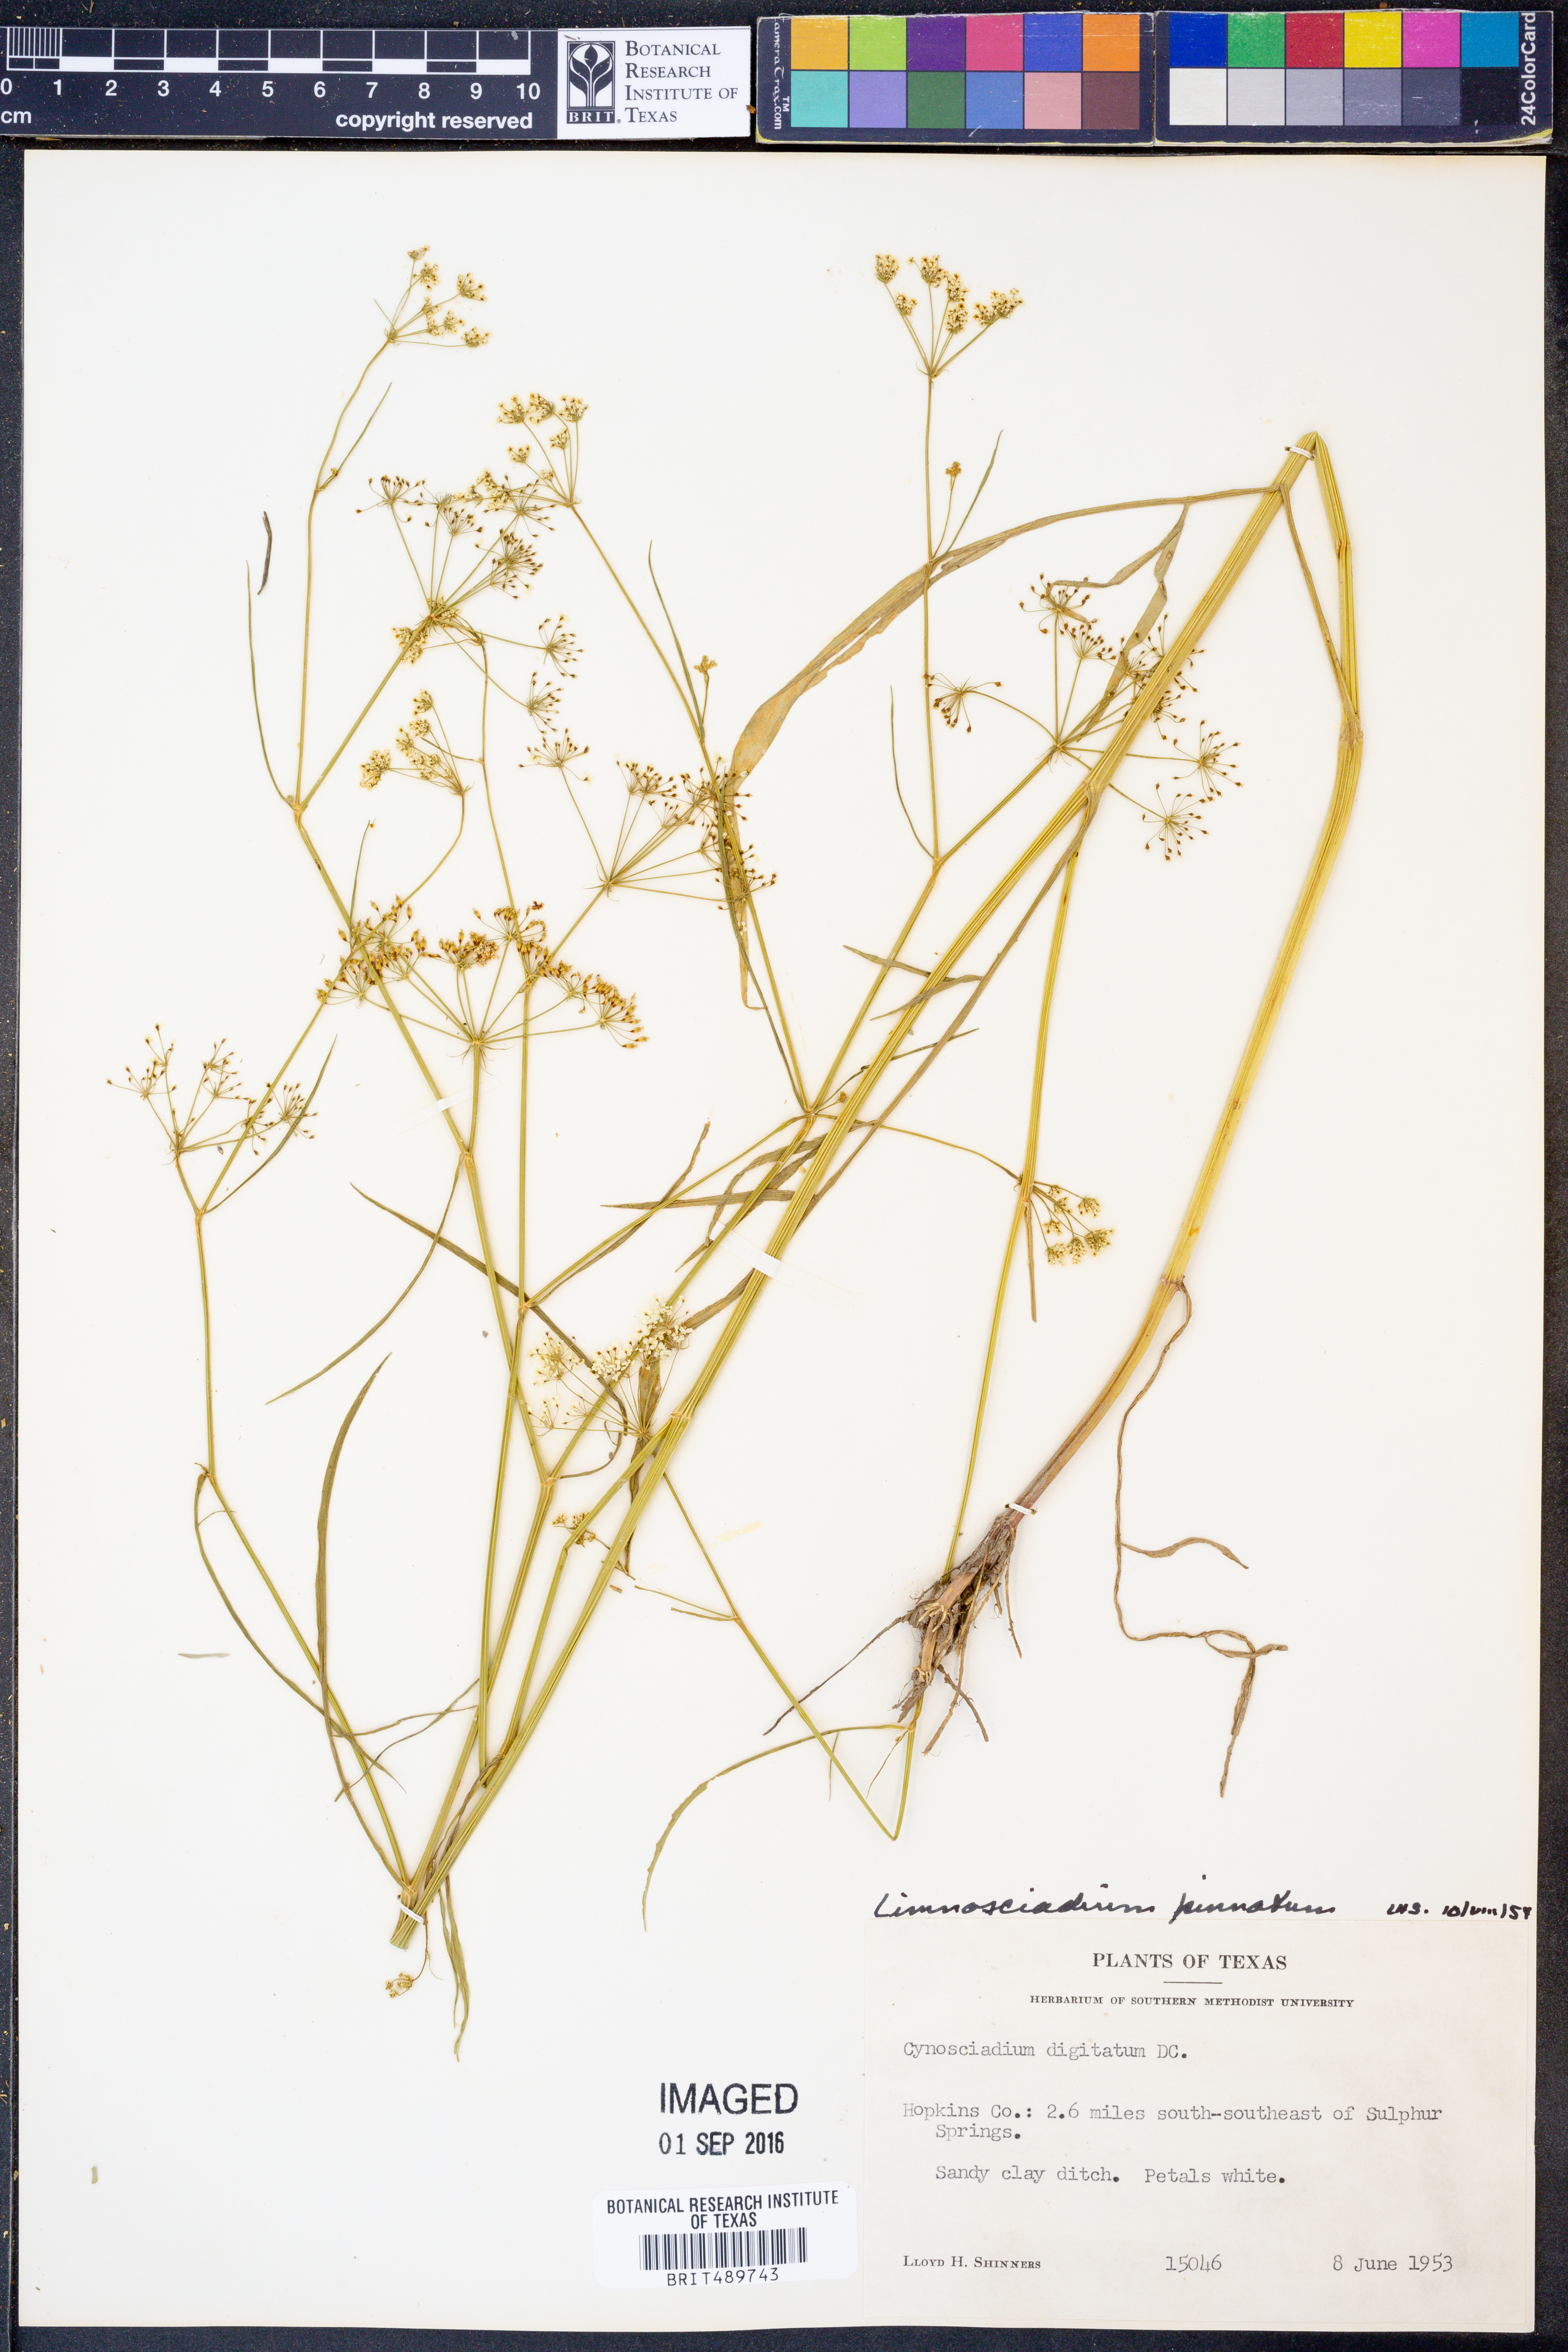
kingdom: Plantae
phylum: Tracheophyta
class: Magnoliopsida
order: Apiales
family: Apiaceae
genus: Limnosciadium
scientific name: Limnosciadium pinnatum
